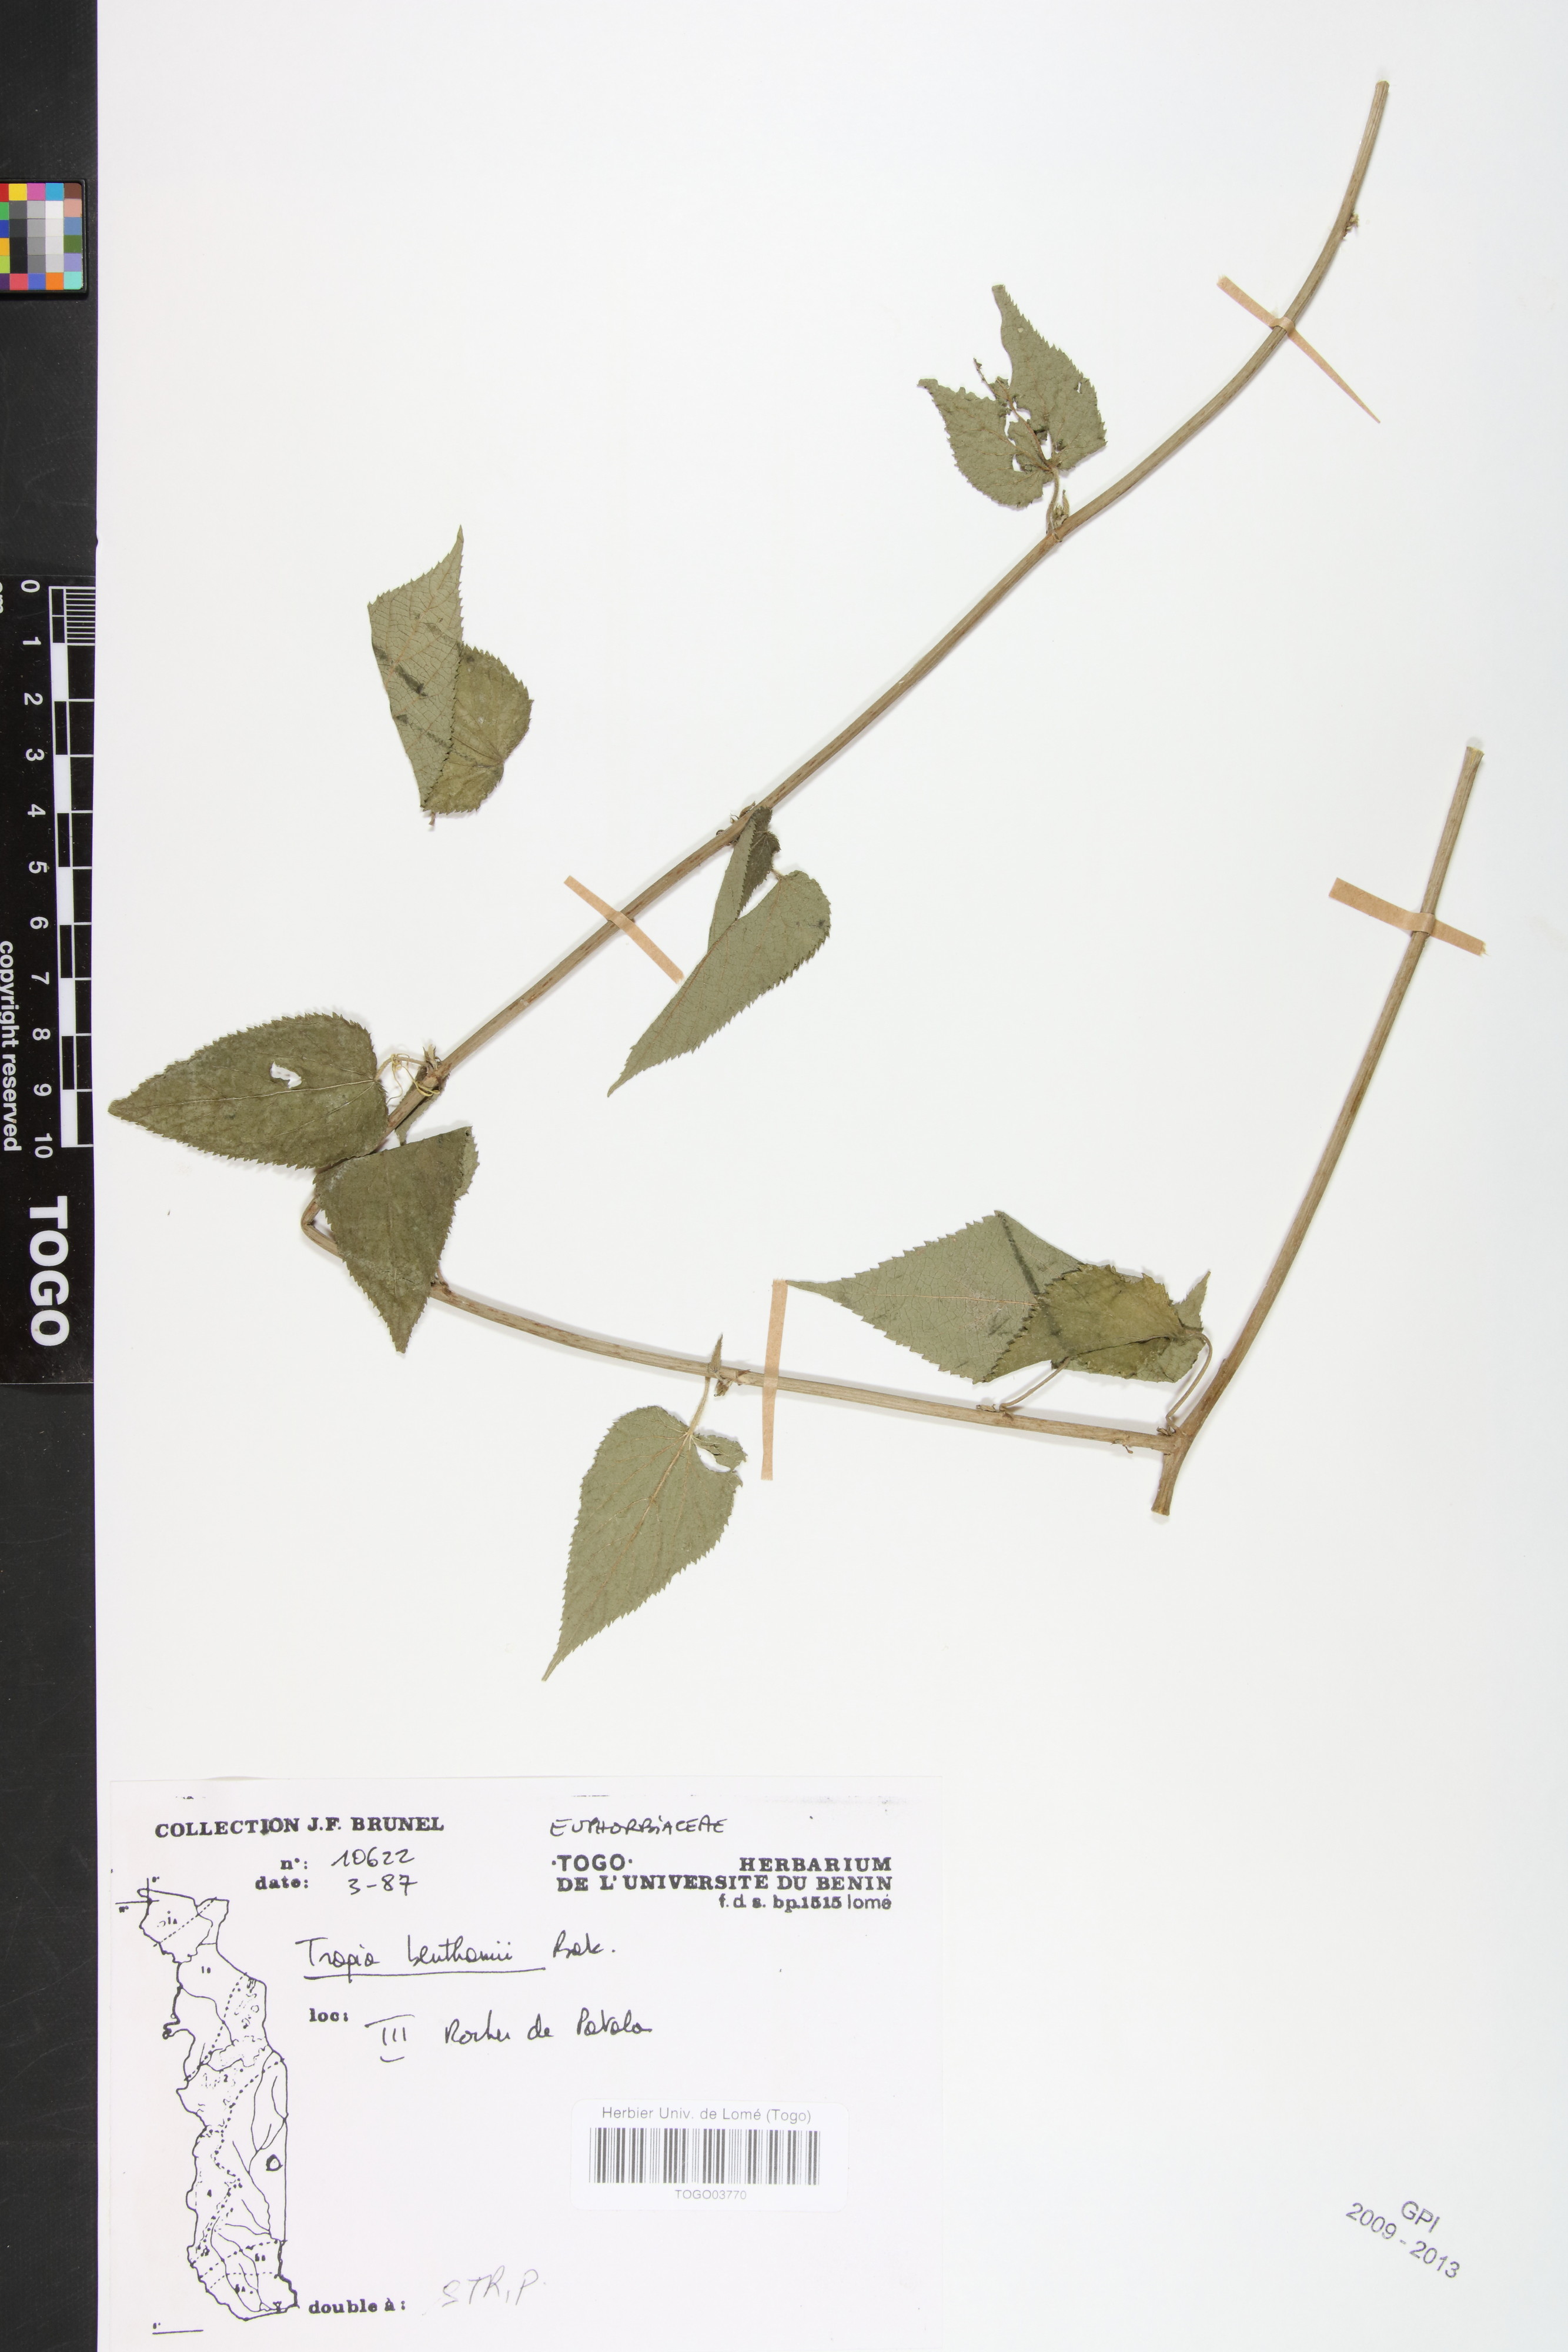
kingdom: Plantae
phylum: Tracheophyta
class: Magnoliopsida
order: Malpighiales
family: Euphorbiaceae
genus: Tragia
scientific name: Tragia benthamii
